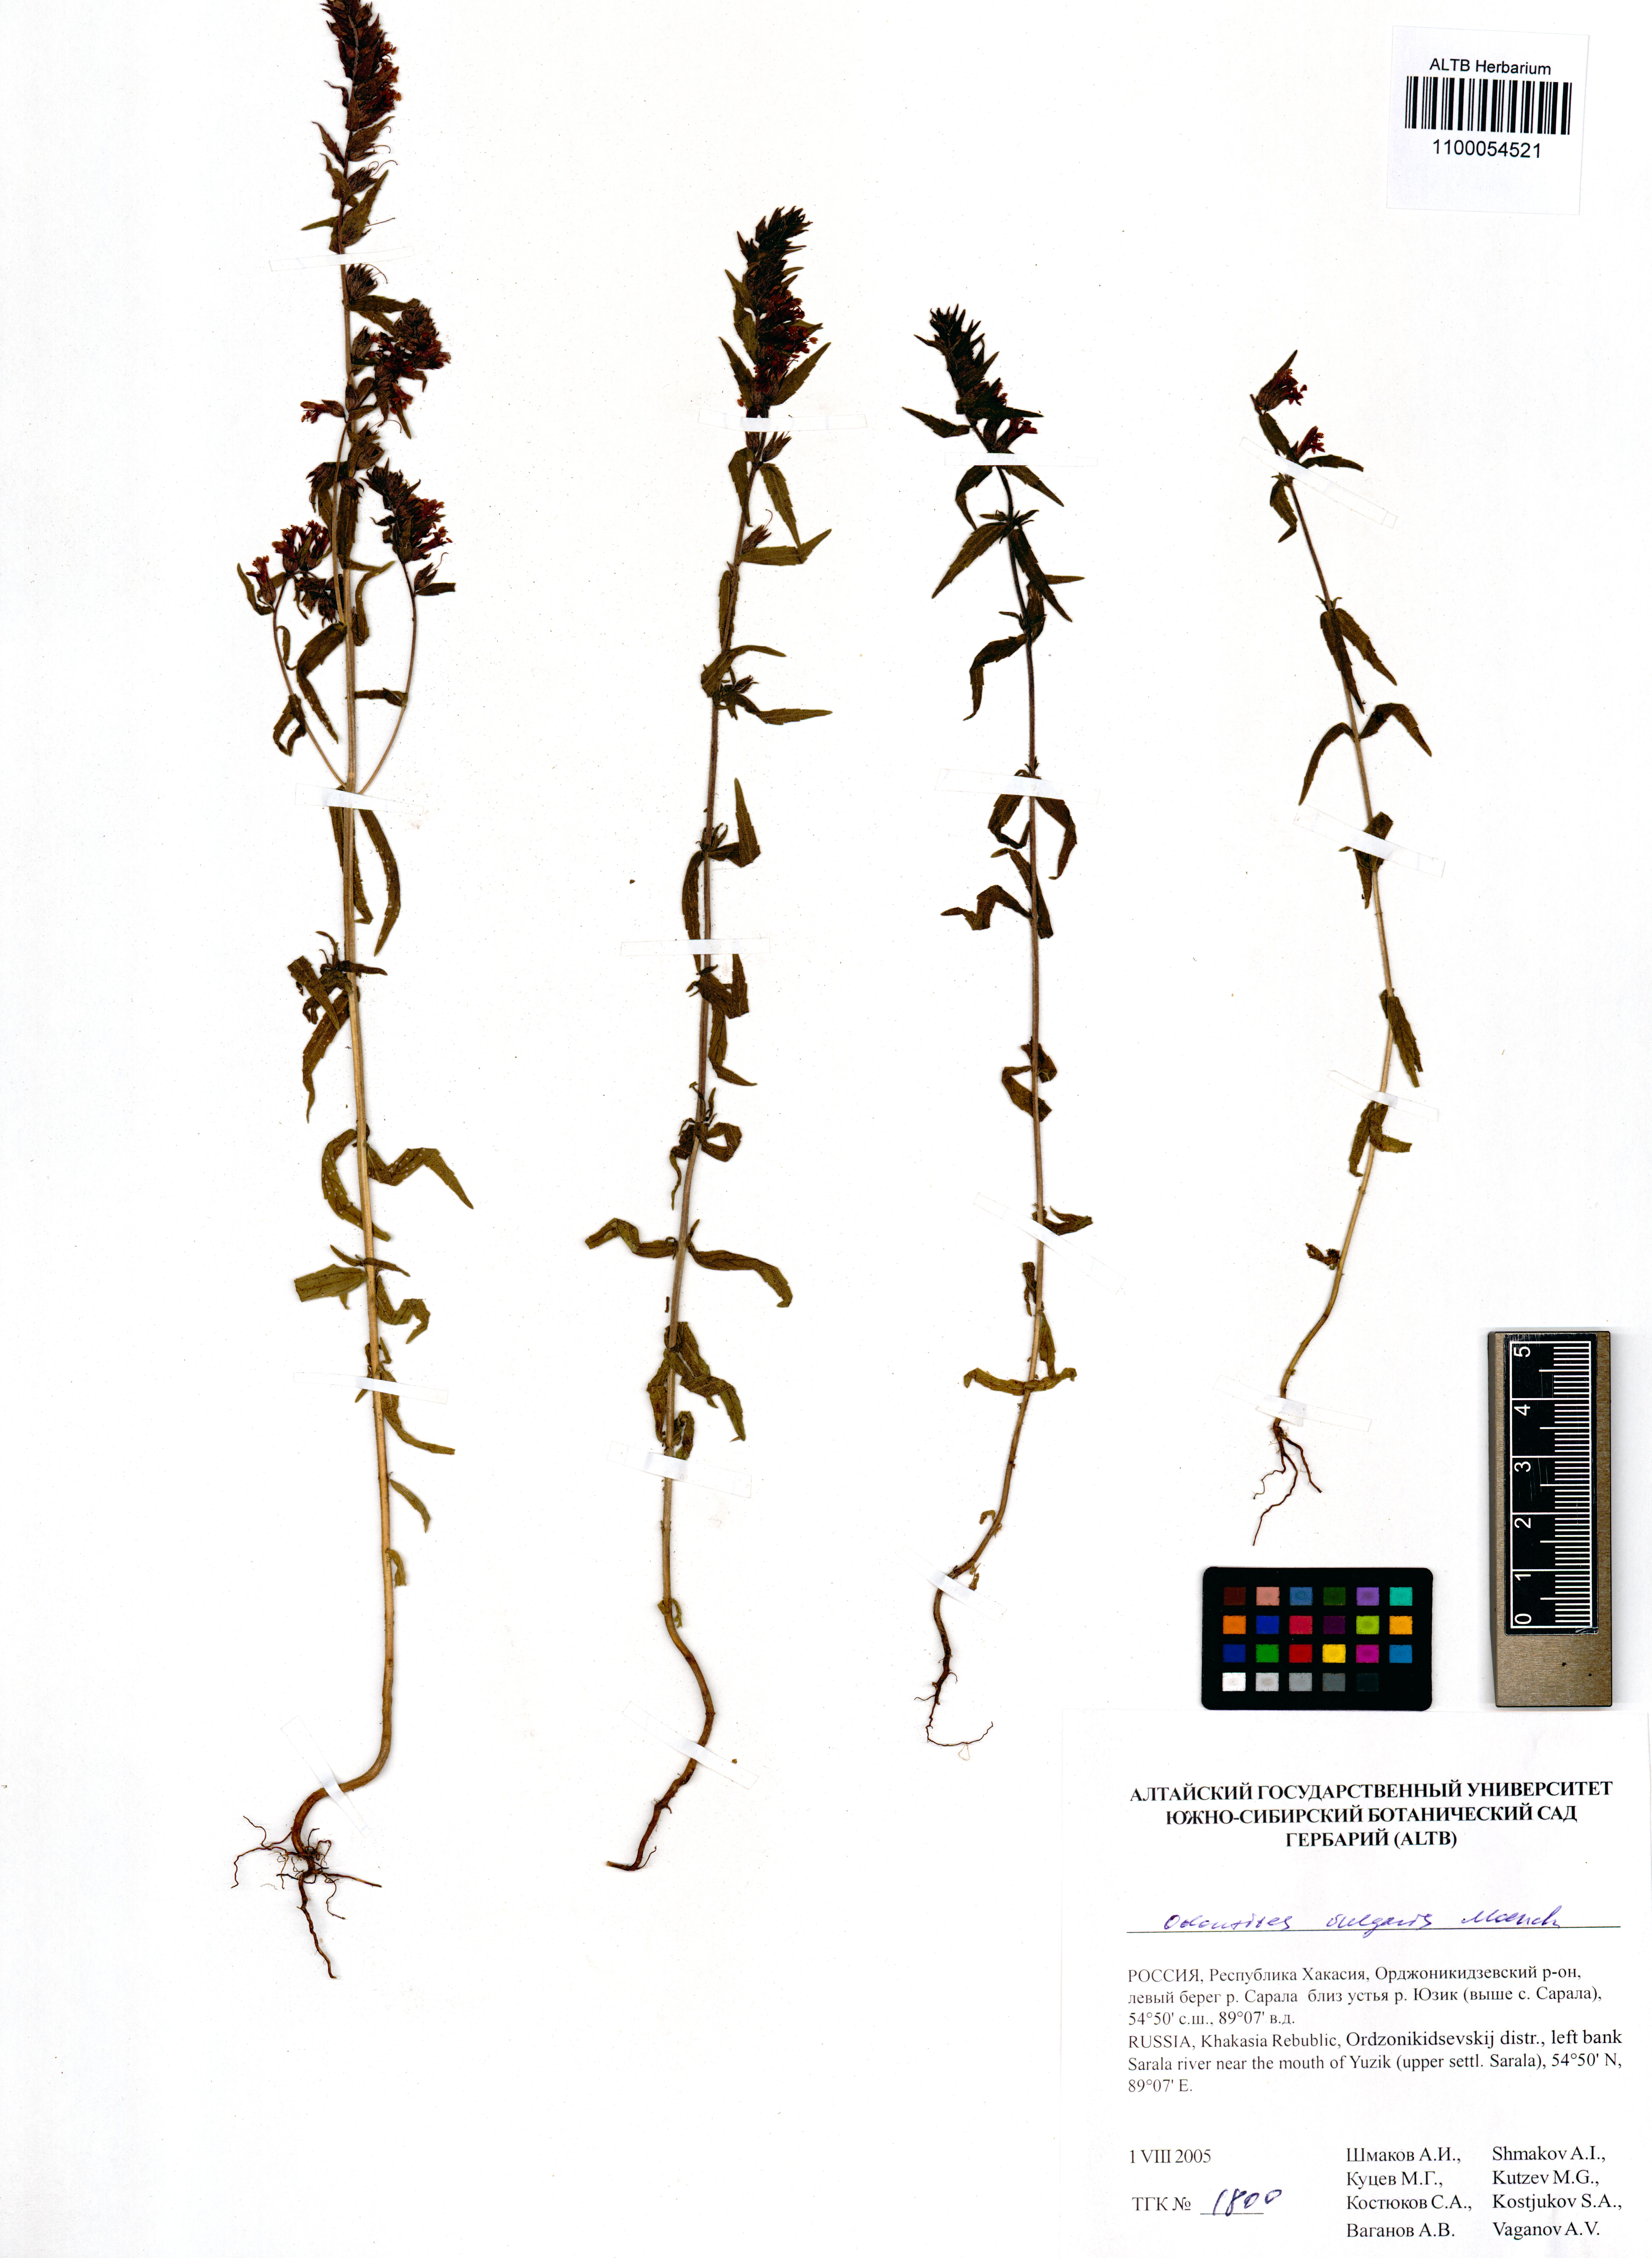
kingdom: Plantae
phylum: Tracheophyta
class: Magnoliopsida
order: Lamiales
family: Orobanchaceae
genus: Odontites
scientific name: Odontites vulgaris
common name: Broomrape
